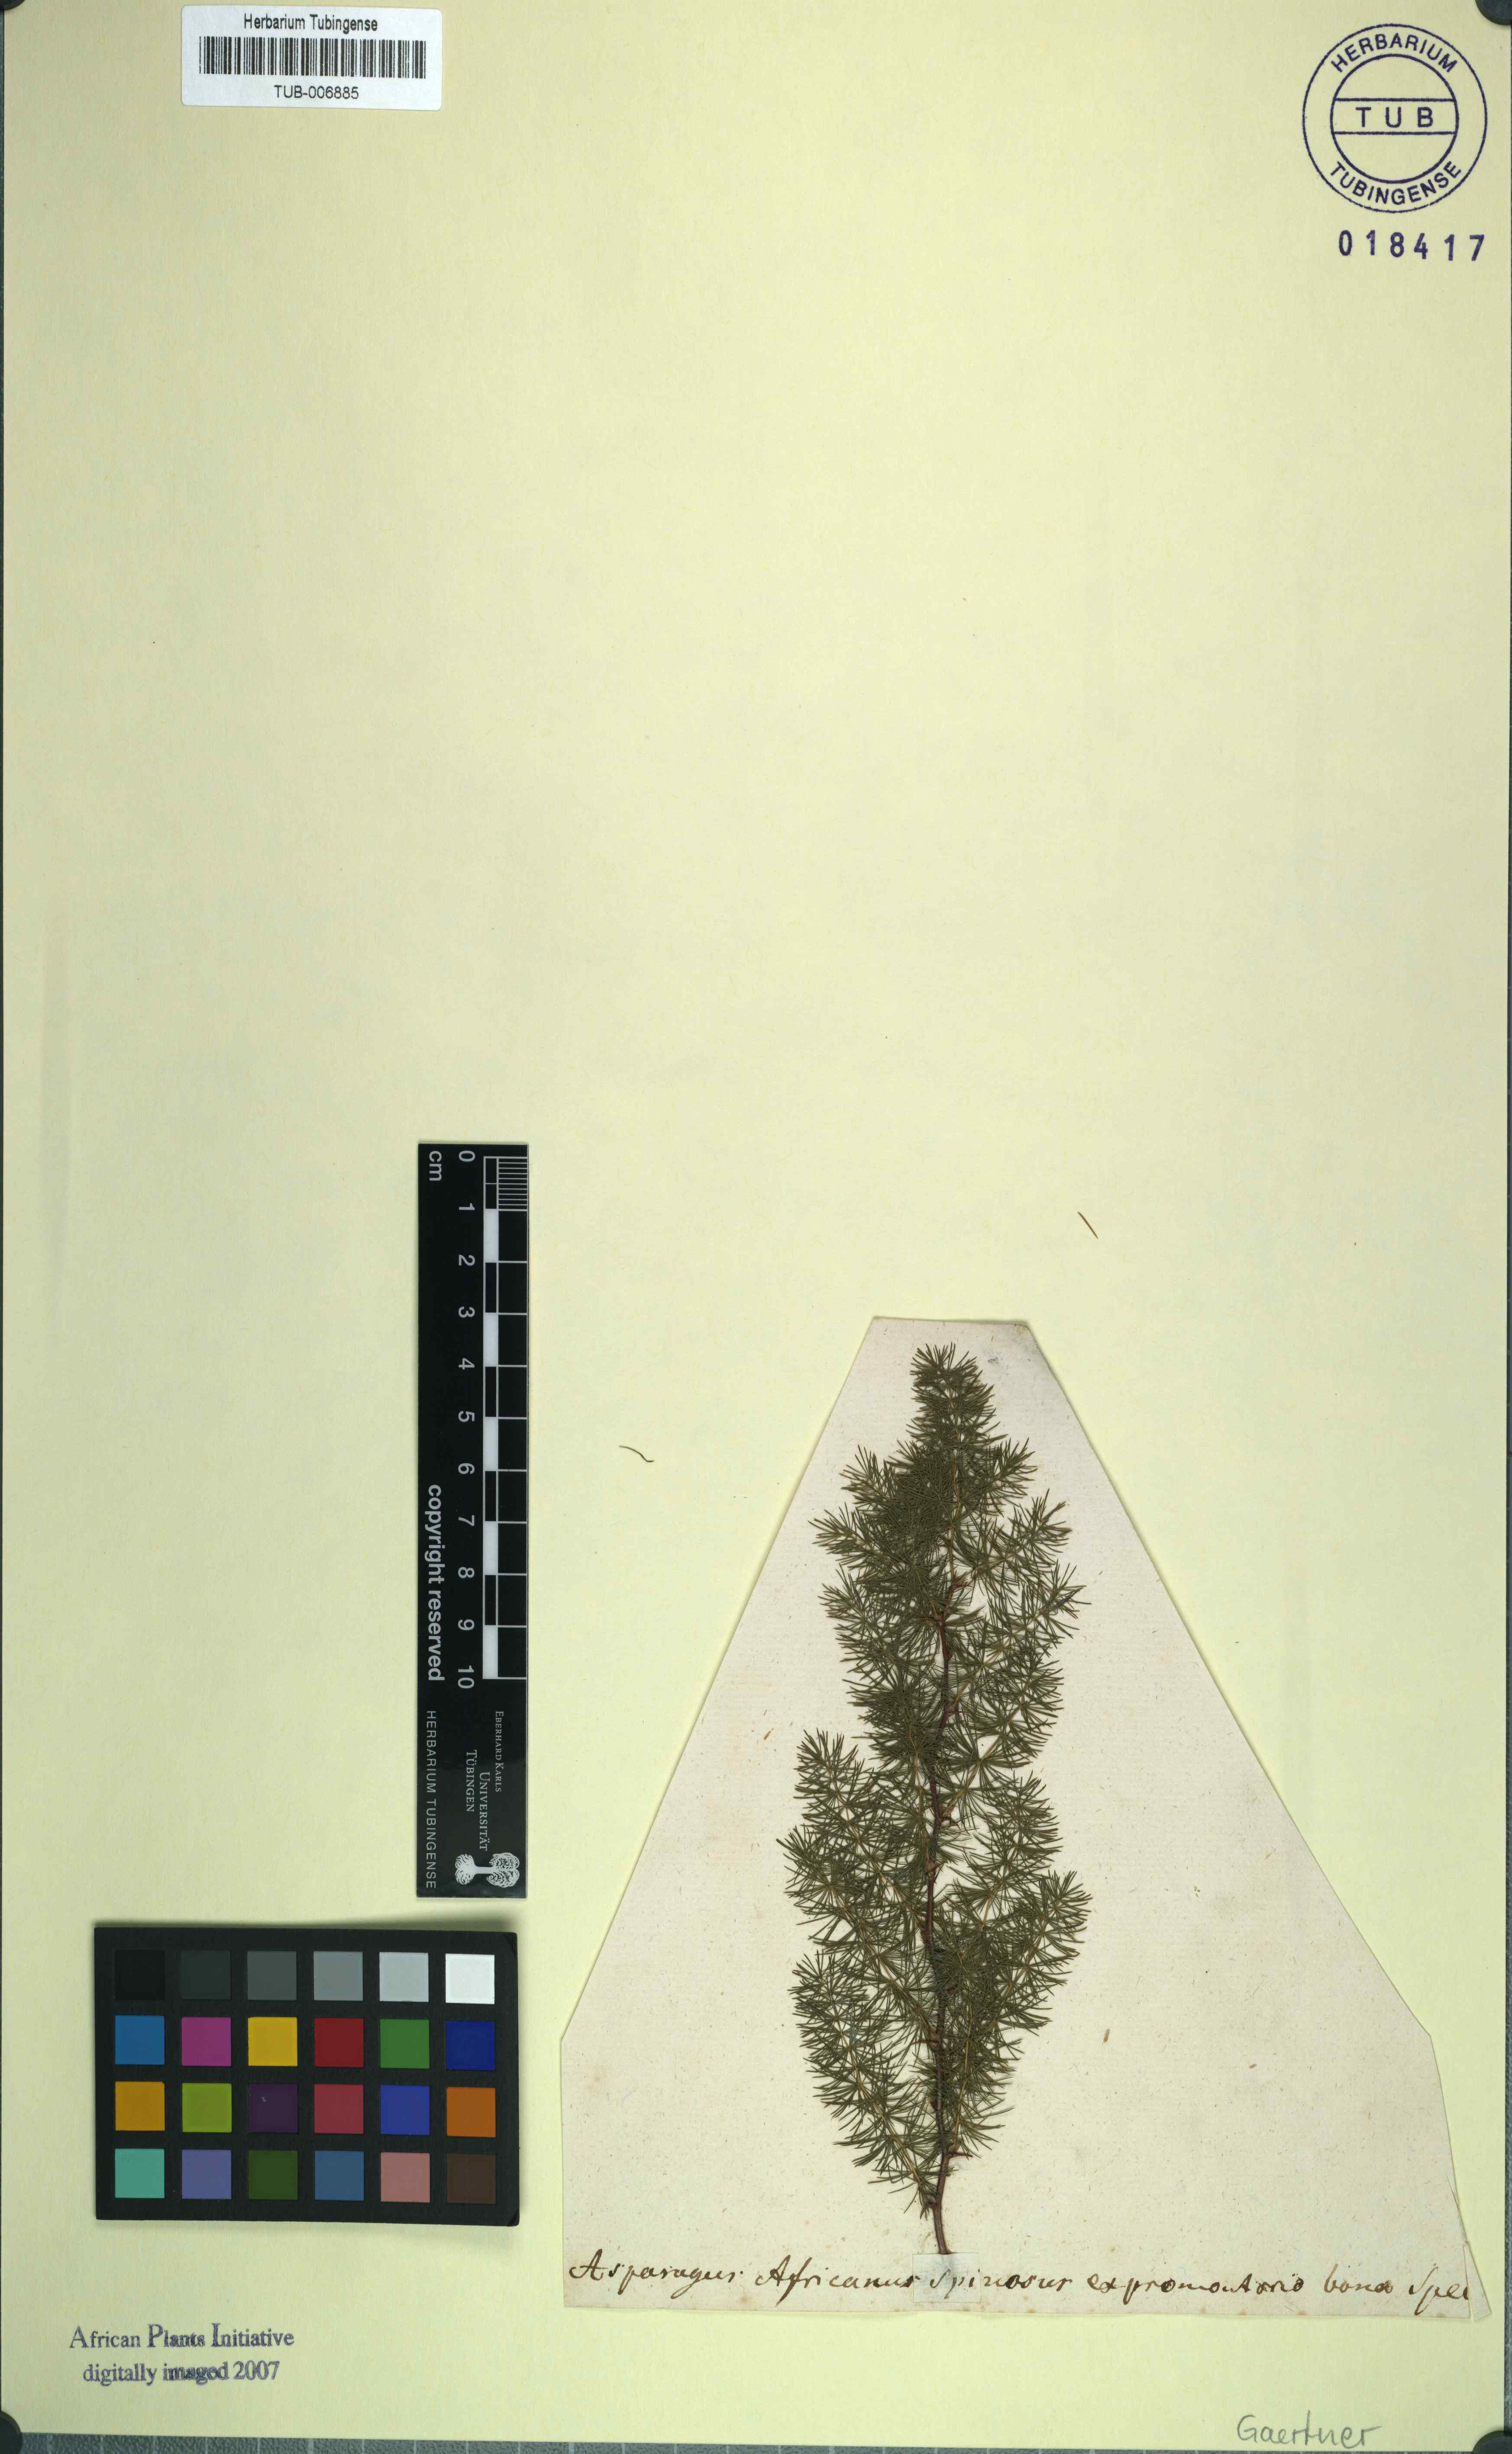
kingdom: Plantae
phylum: Tracheophyta
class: Liliopsida
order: Asparagales
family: Asparagaceae
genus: Asparagus
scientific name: Asparagus africanus
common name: Asparagus-fern
